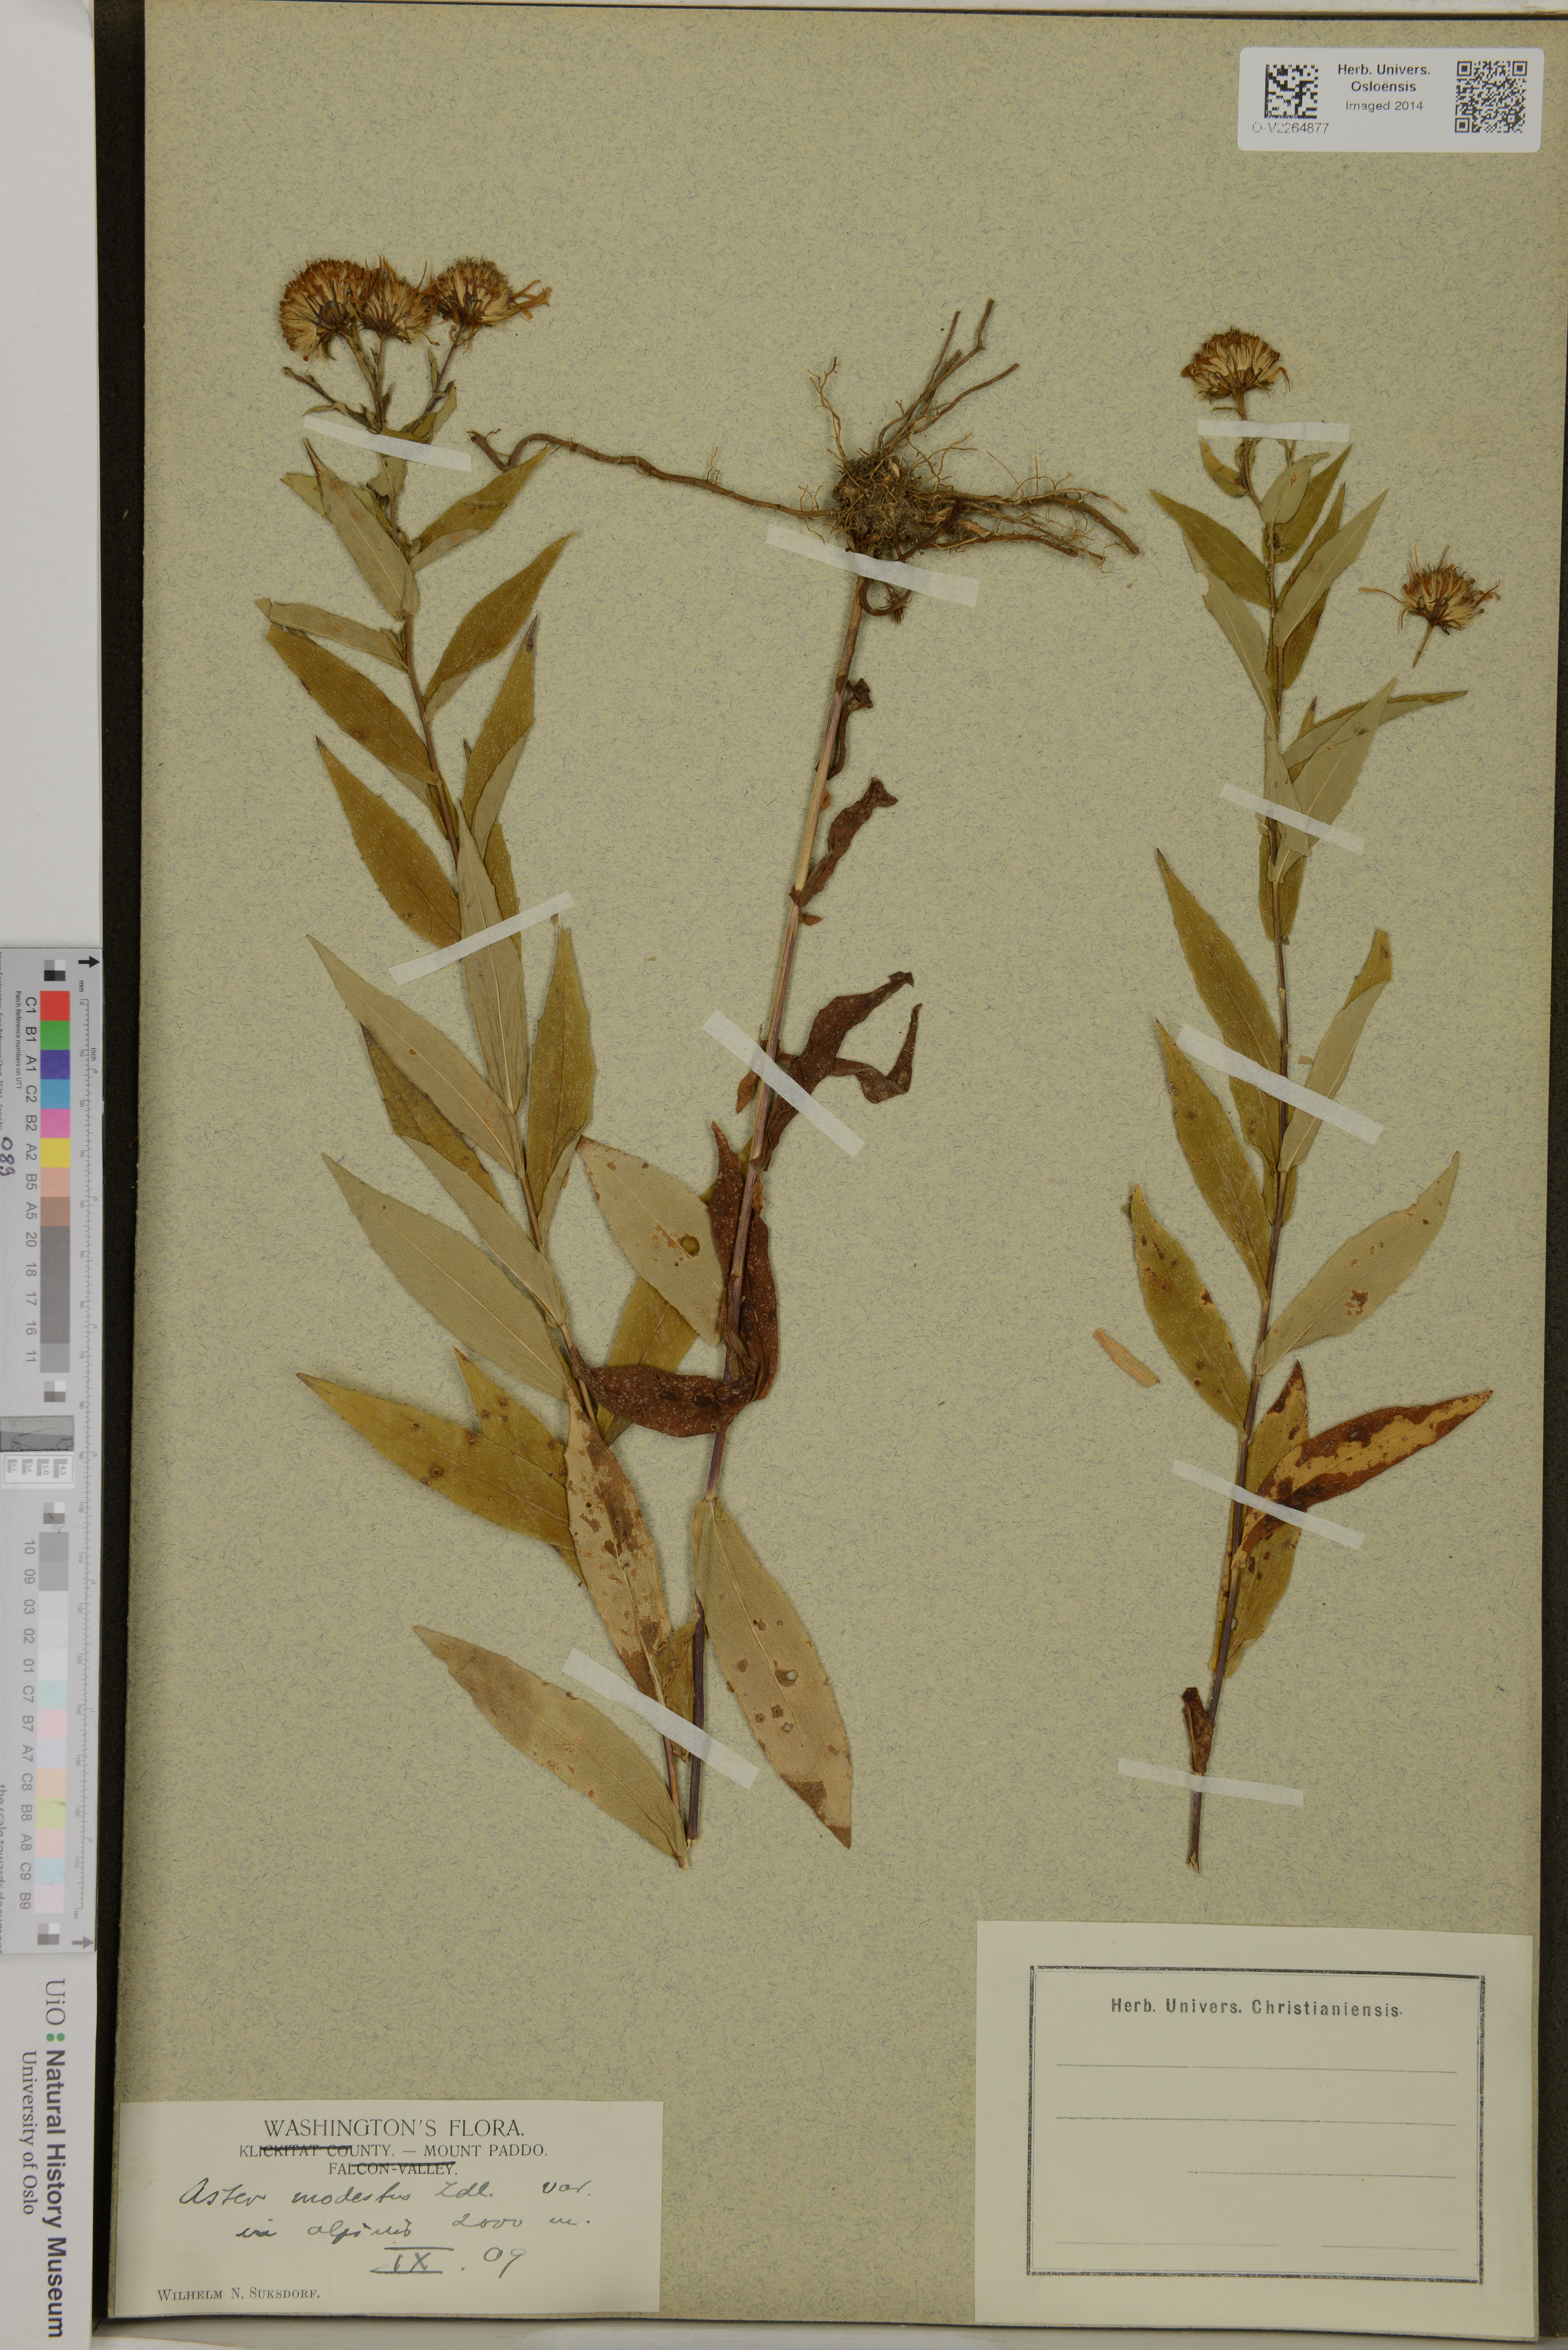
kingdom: Plantae
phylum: Tracheophyta
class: Magnoliopsida
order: Asterales
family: Asteraceae
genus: Canadanthus
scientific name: Canadanthus modestus
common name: Great northern aster
